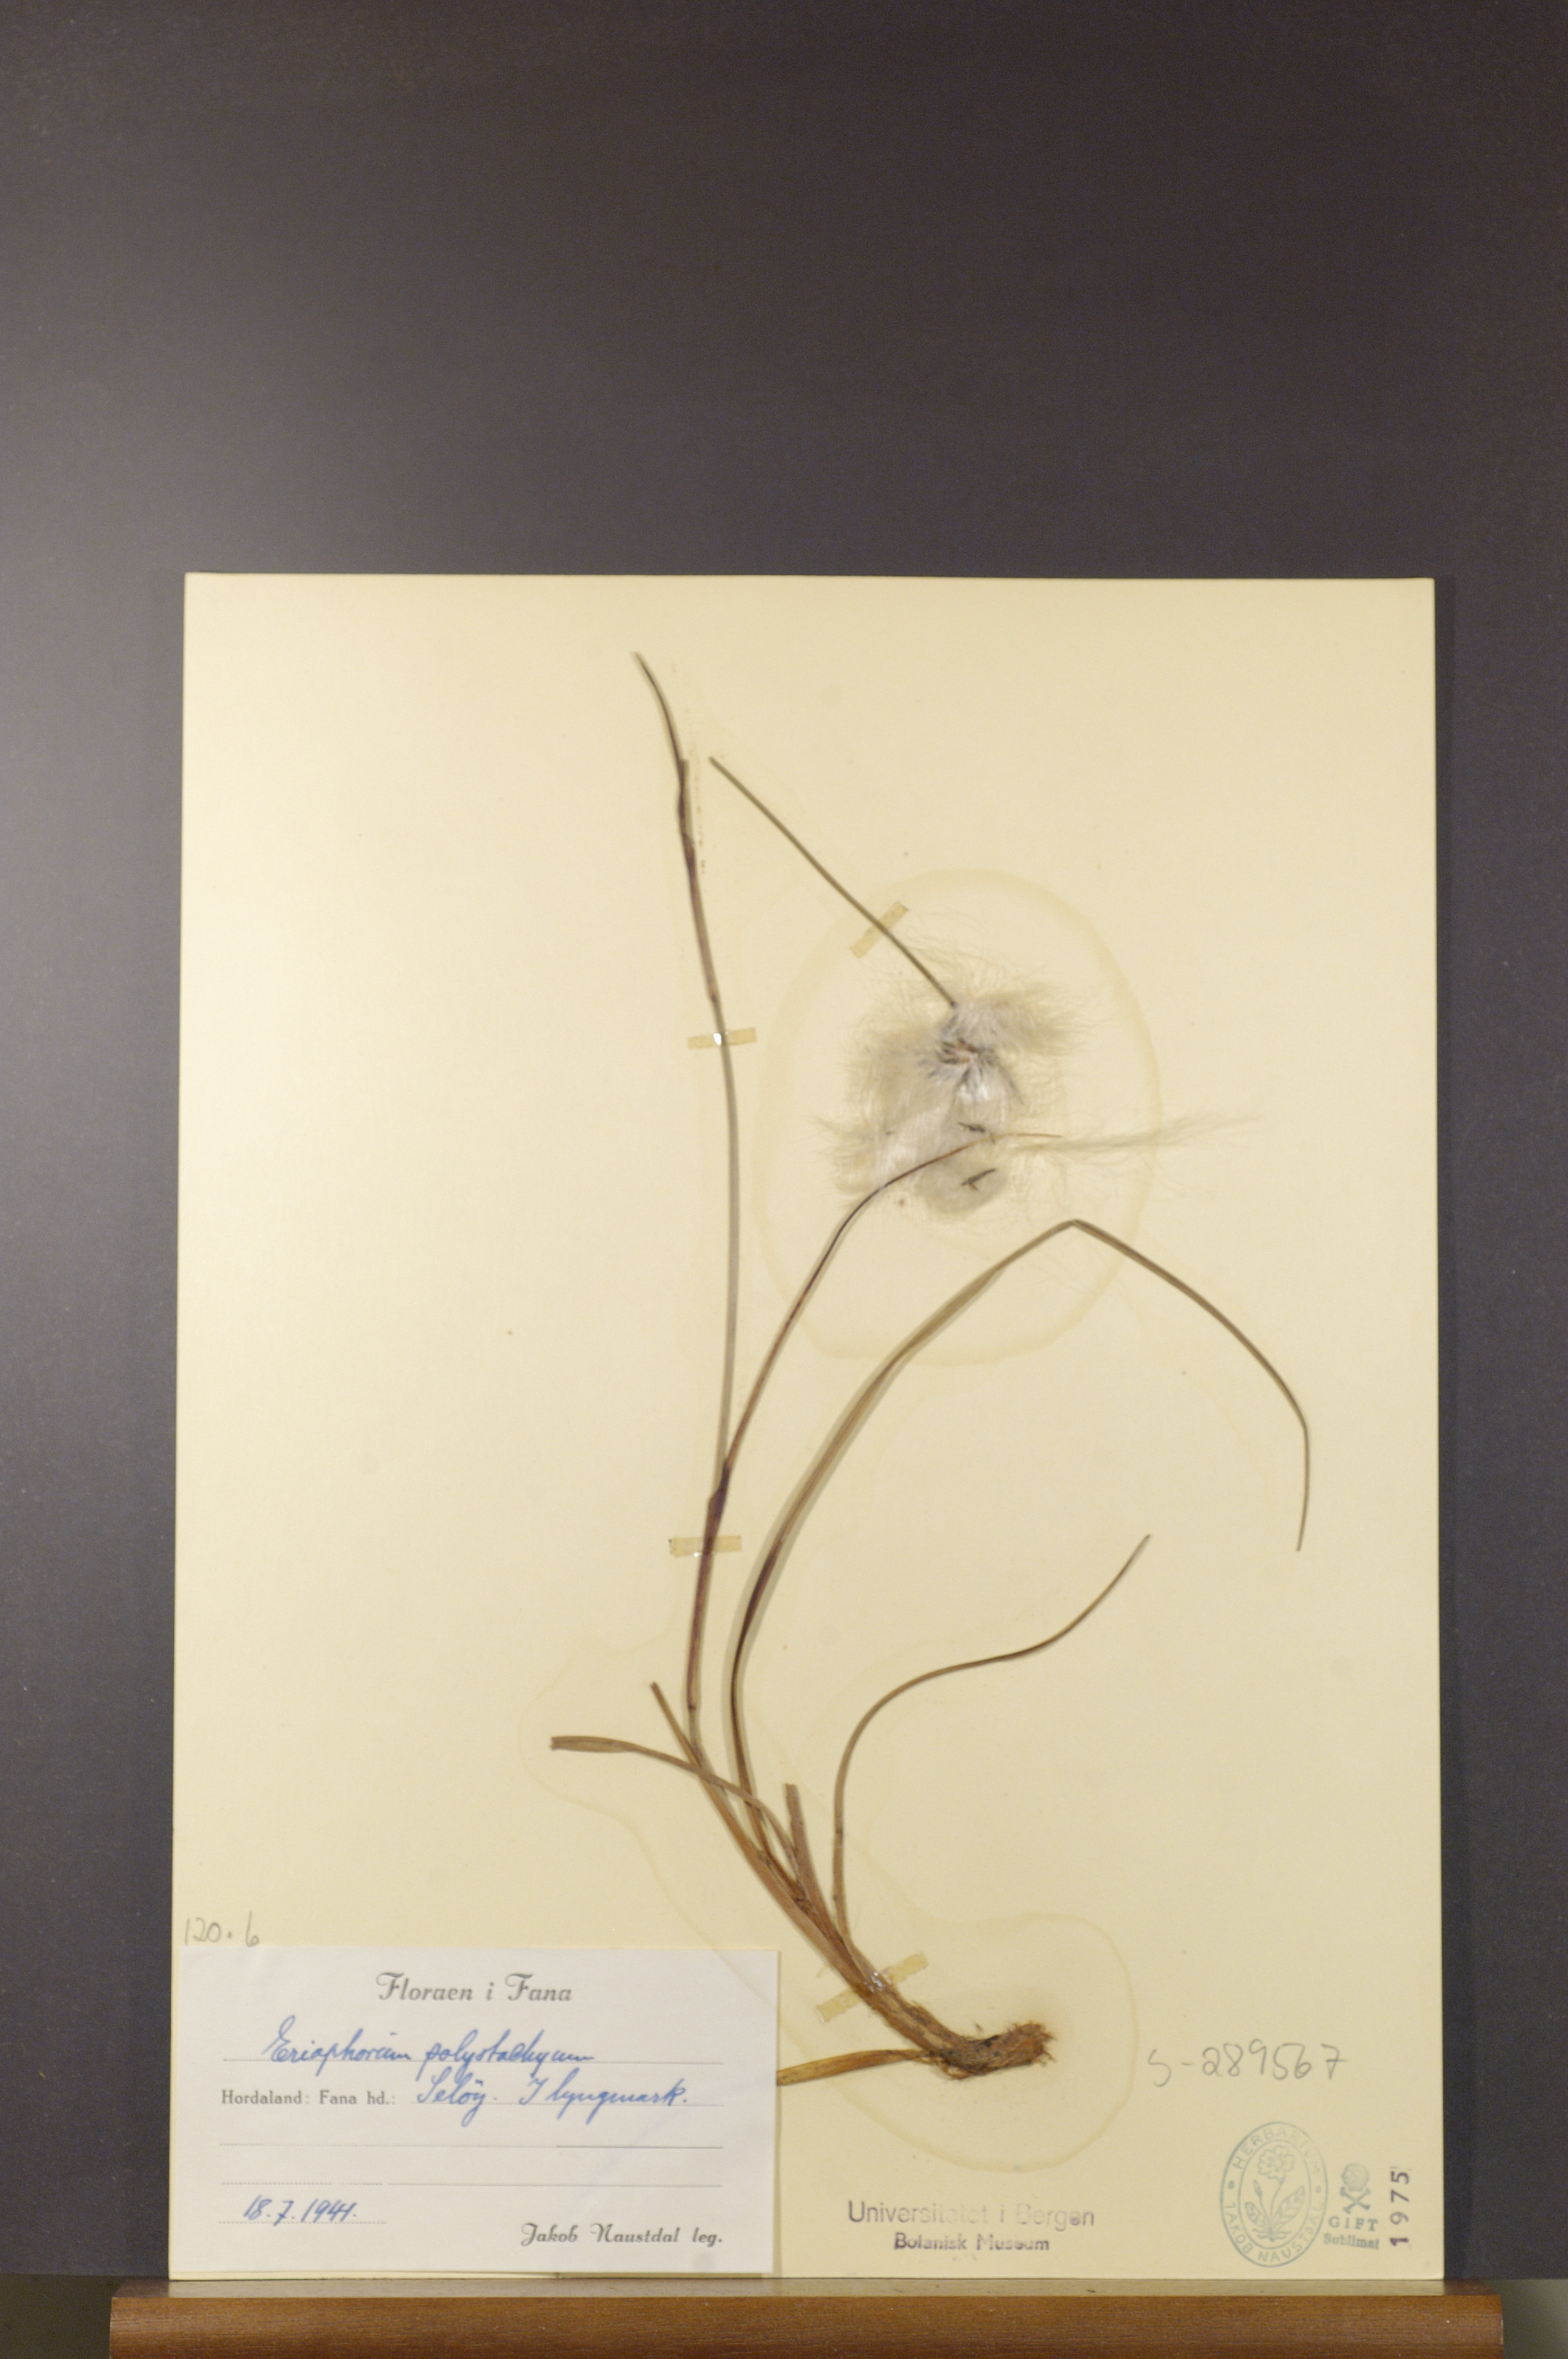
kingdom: Plantae
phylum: Tracheophyta
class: Liliopsida
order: Poales
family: Cyperaceae
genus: Eriophorum
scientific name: Eriophorum angustifolium
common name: Common cottongrass
